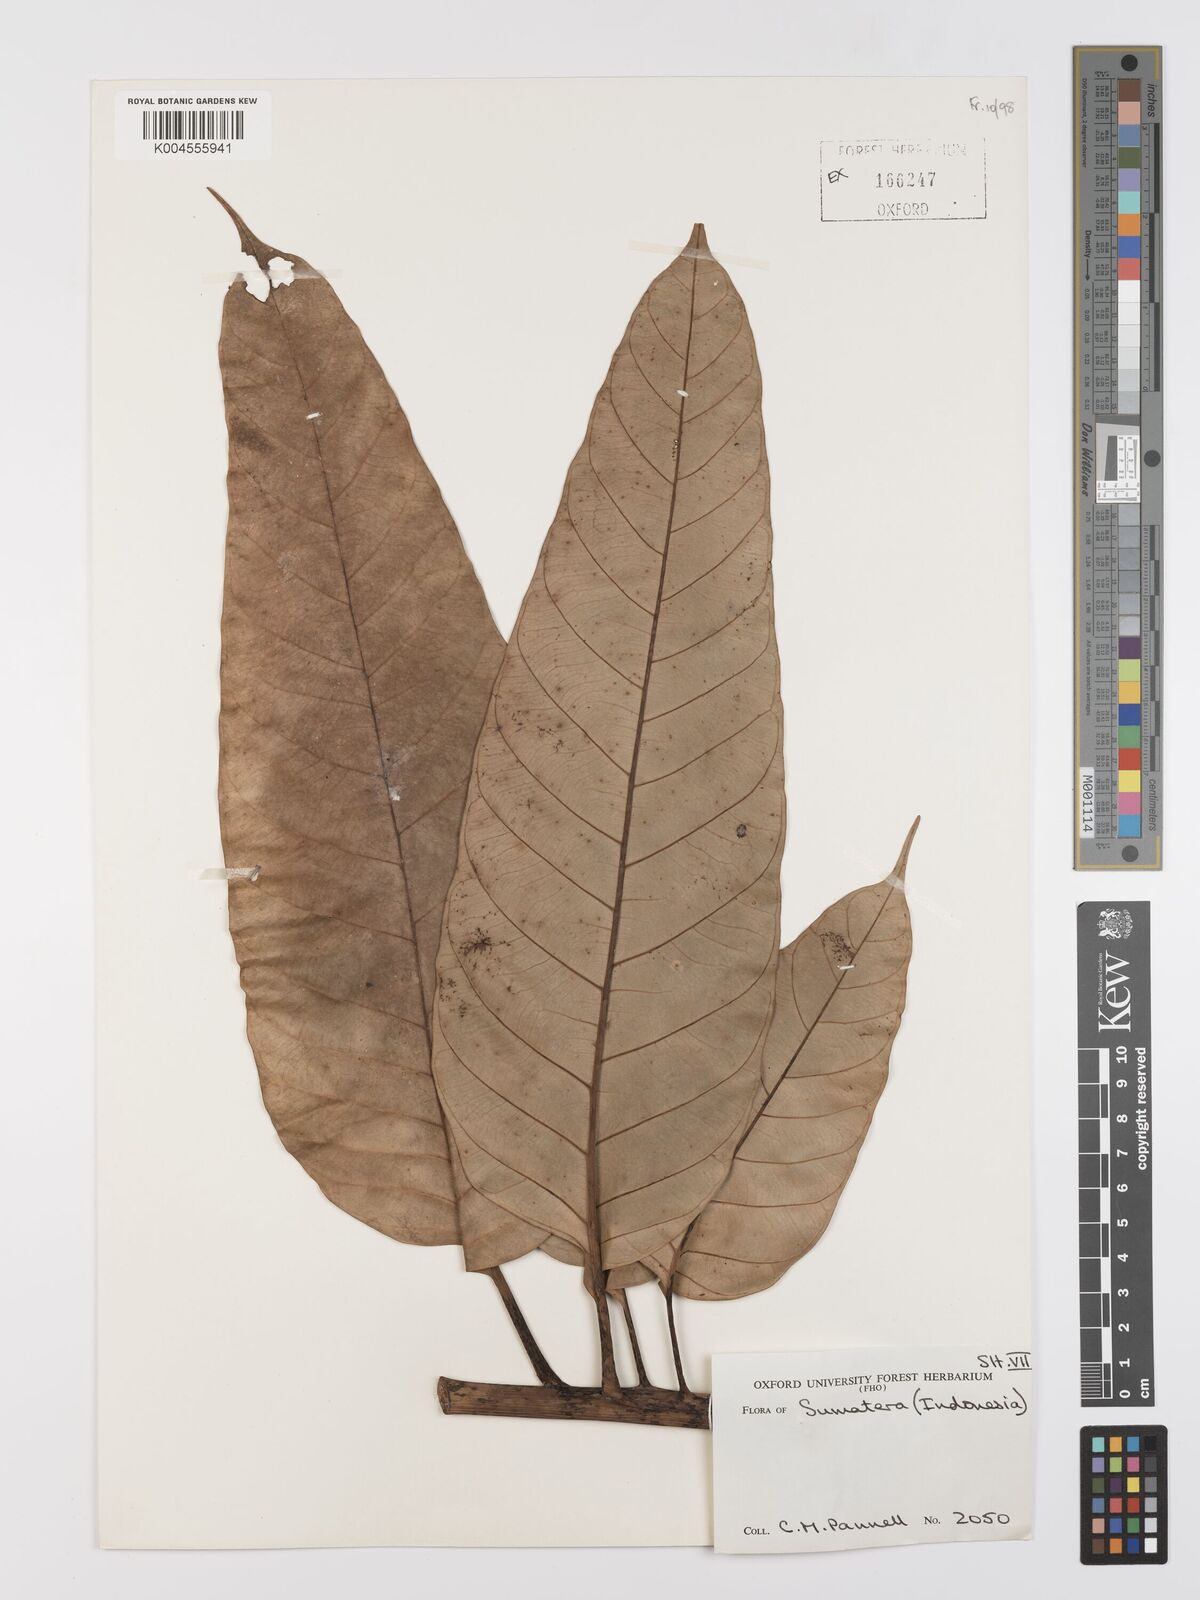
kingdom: Plantae
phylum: Tracheophyta
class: Magnoliopsida
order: Rosales
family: Moraceae
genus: Artocarpus
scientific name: Artocarpus anisophyllus
